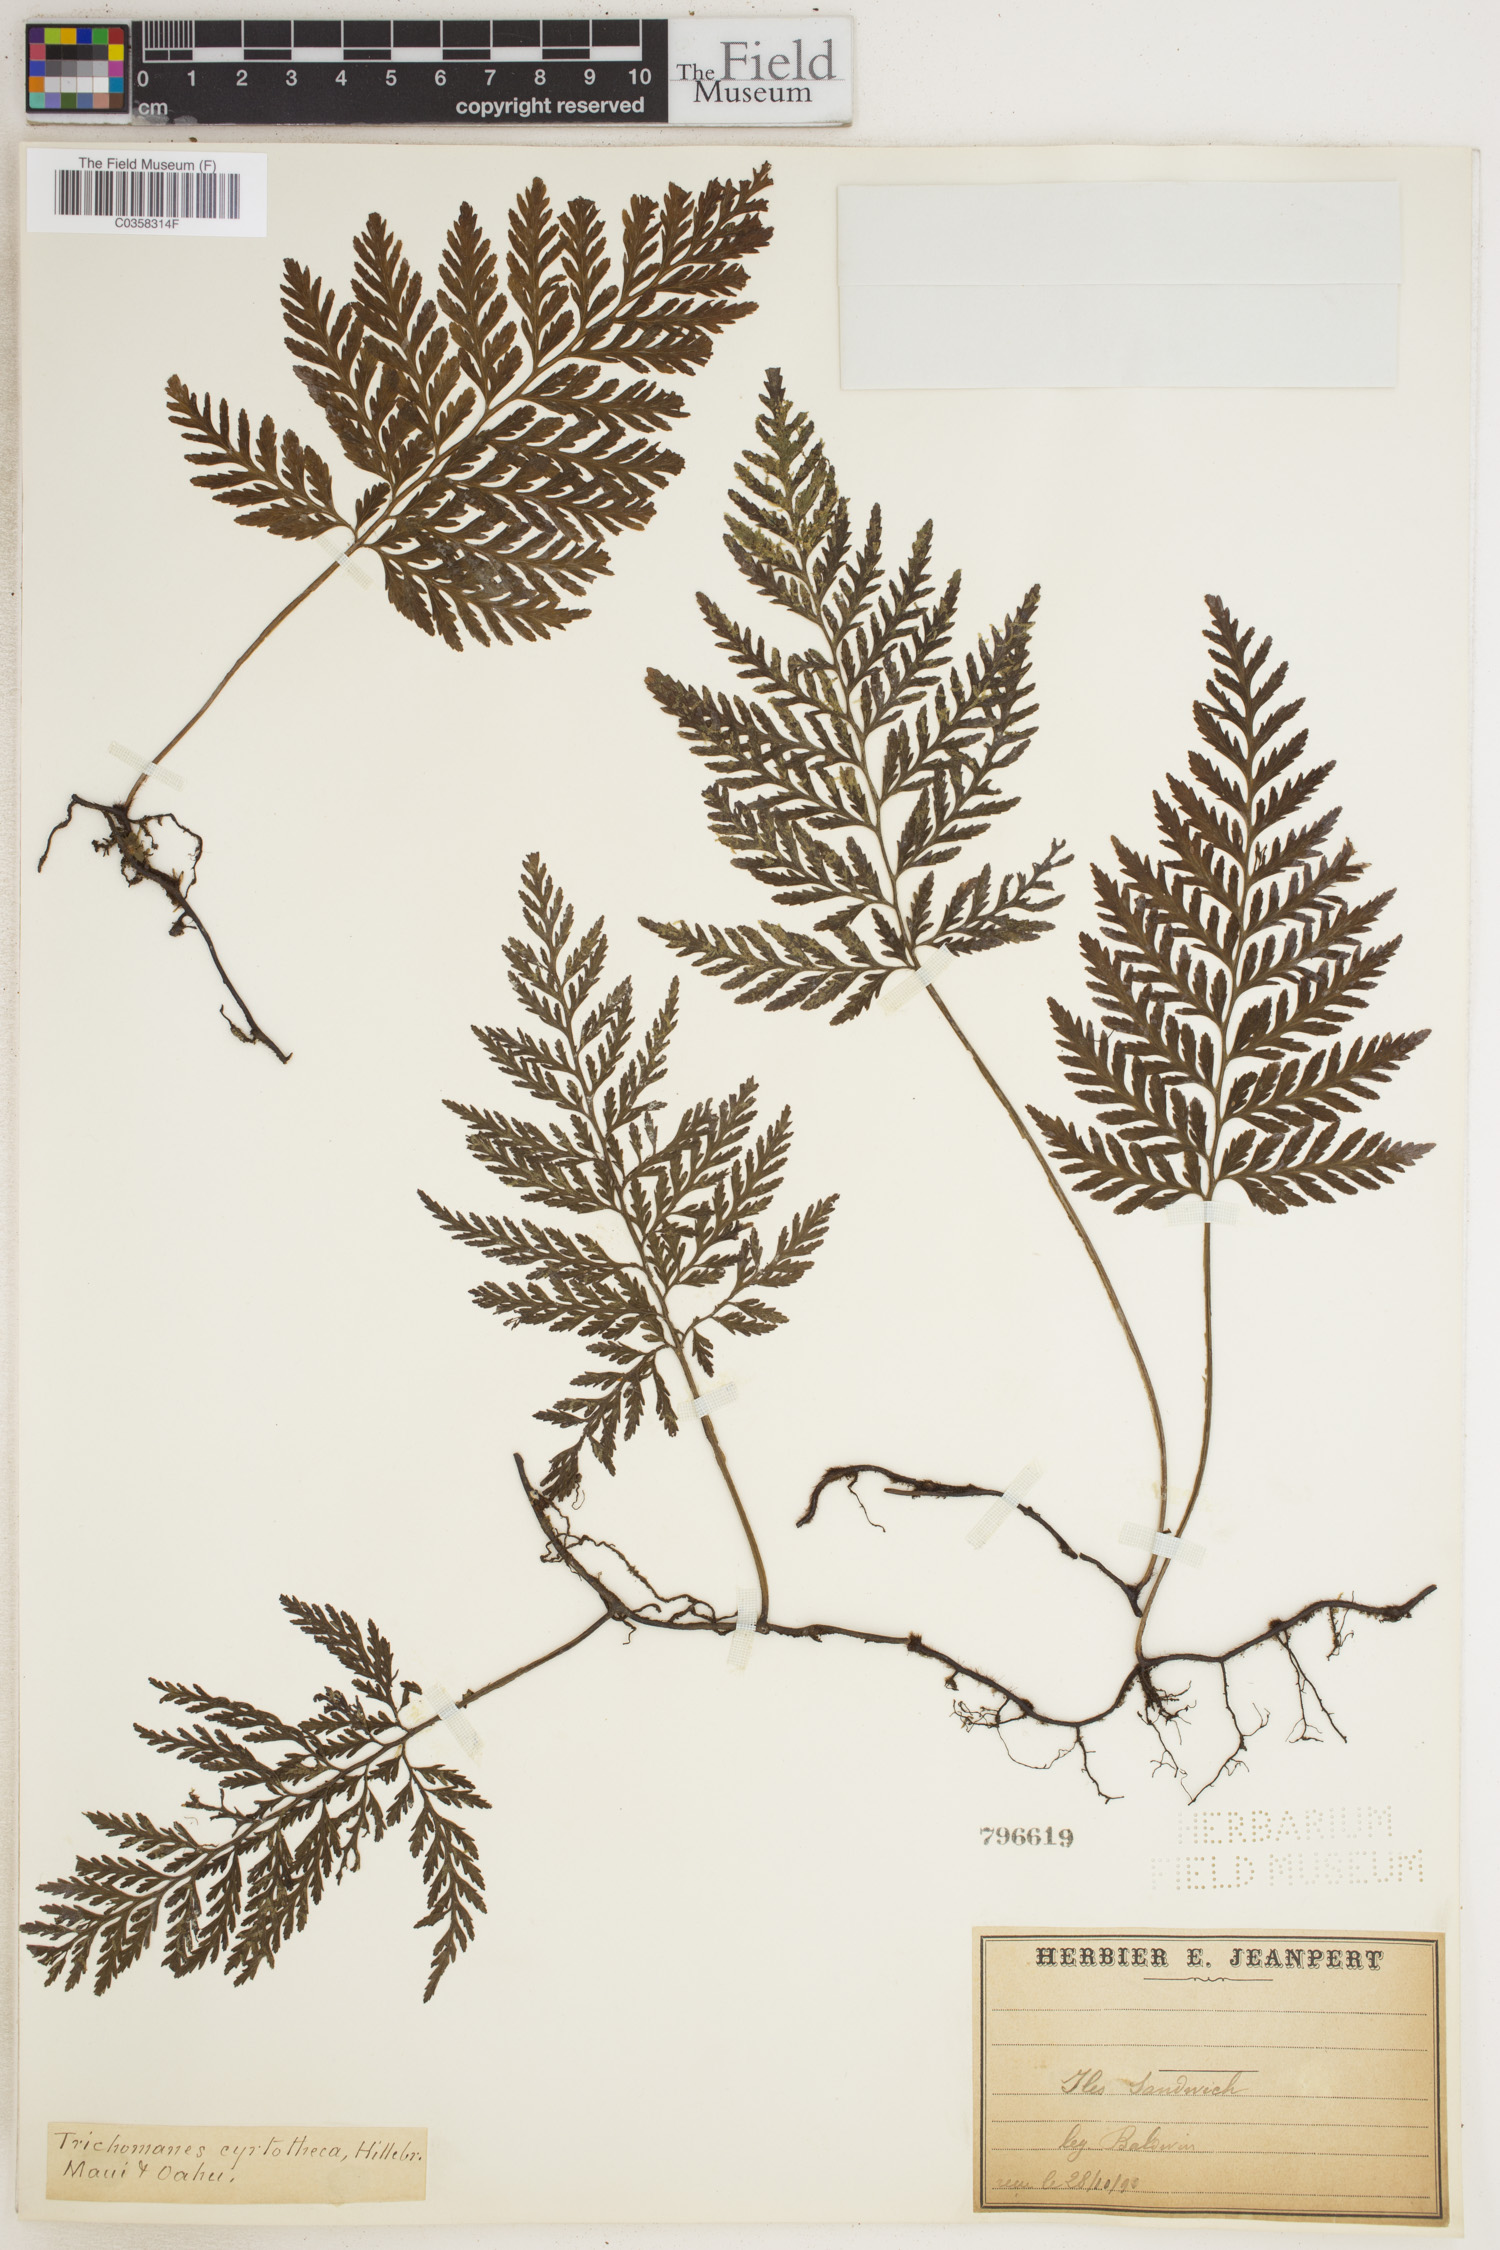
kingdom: Plantae
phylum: Tracheophyta
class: Polypodiopsida
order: Hymenophyllales
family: Hymenophyllaceae
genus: Vandenboschia
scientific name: Vandenboschia cyrtotheca
